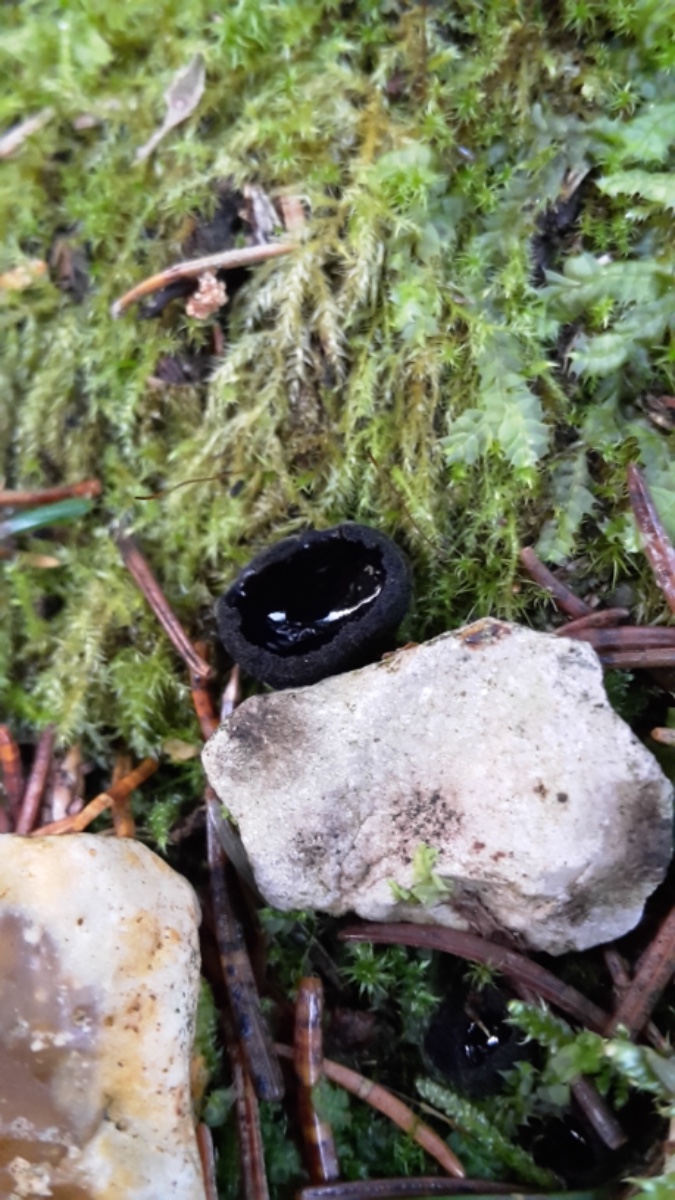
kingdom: Fungi
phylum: Ascomycota
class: Pezizomycetes
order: Pezizales
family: Sarcosomataceae
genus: Pseudoplectania
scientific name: Pseudoplectania nigrella
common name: almindelig sortbæger
